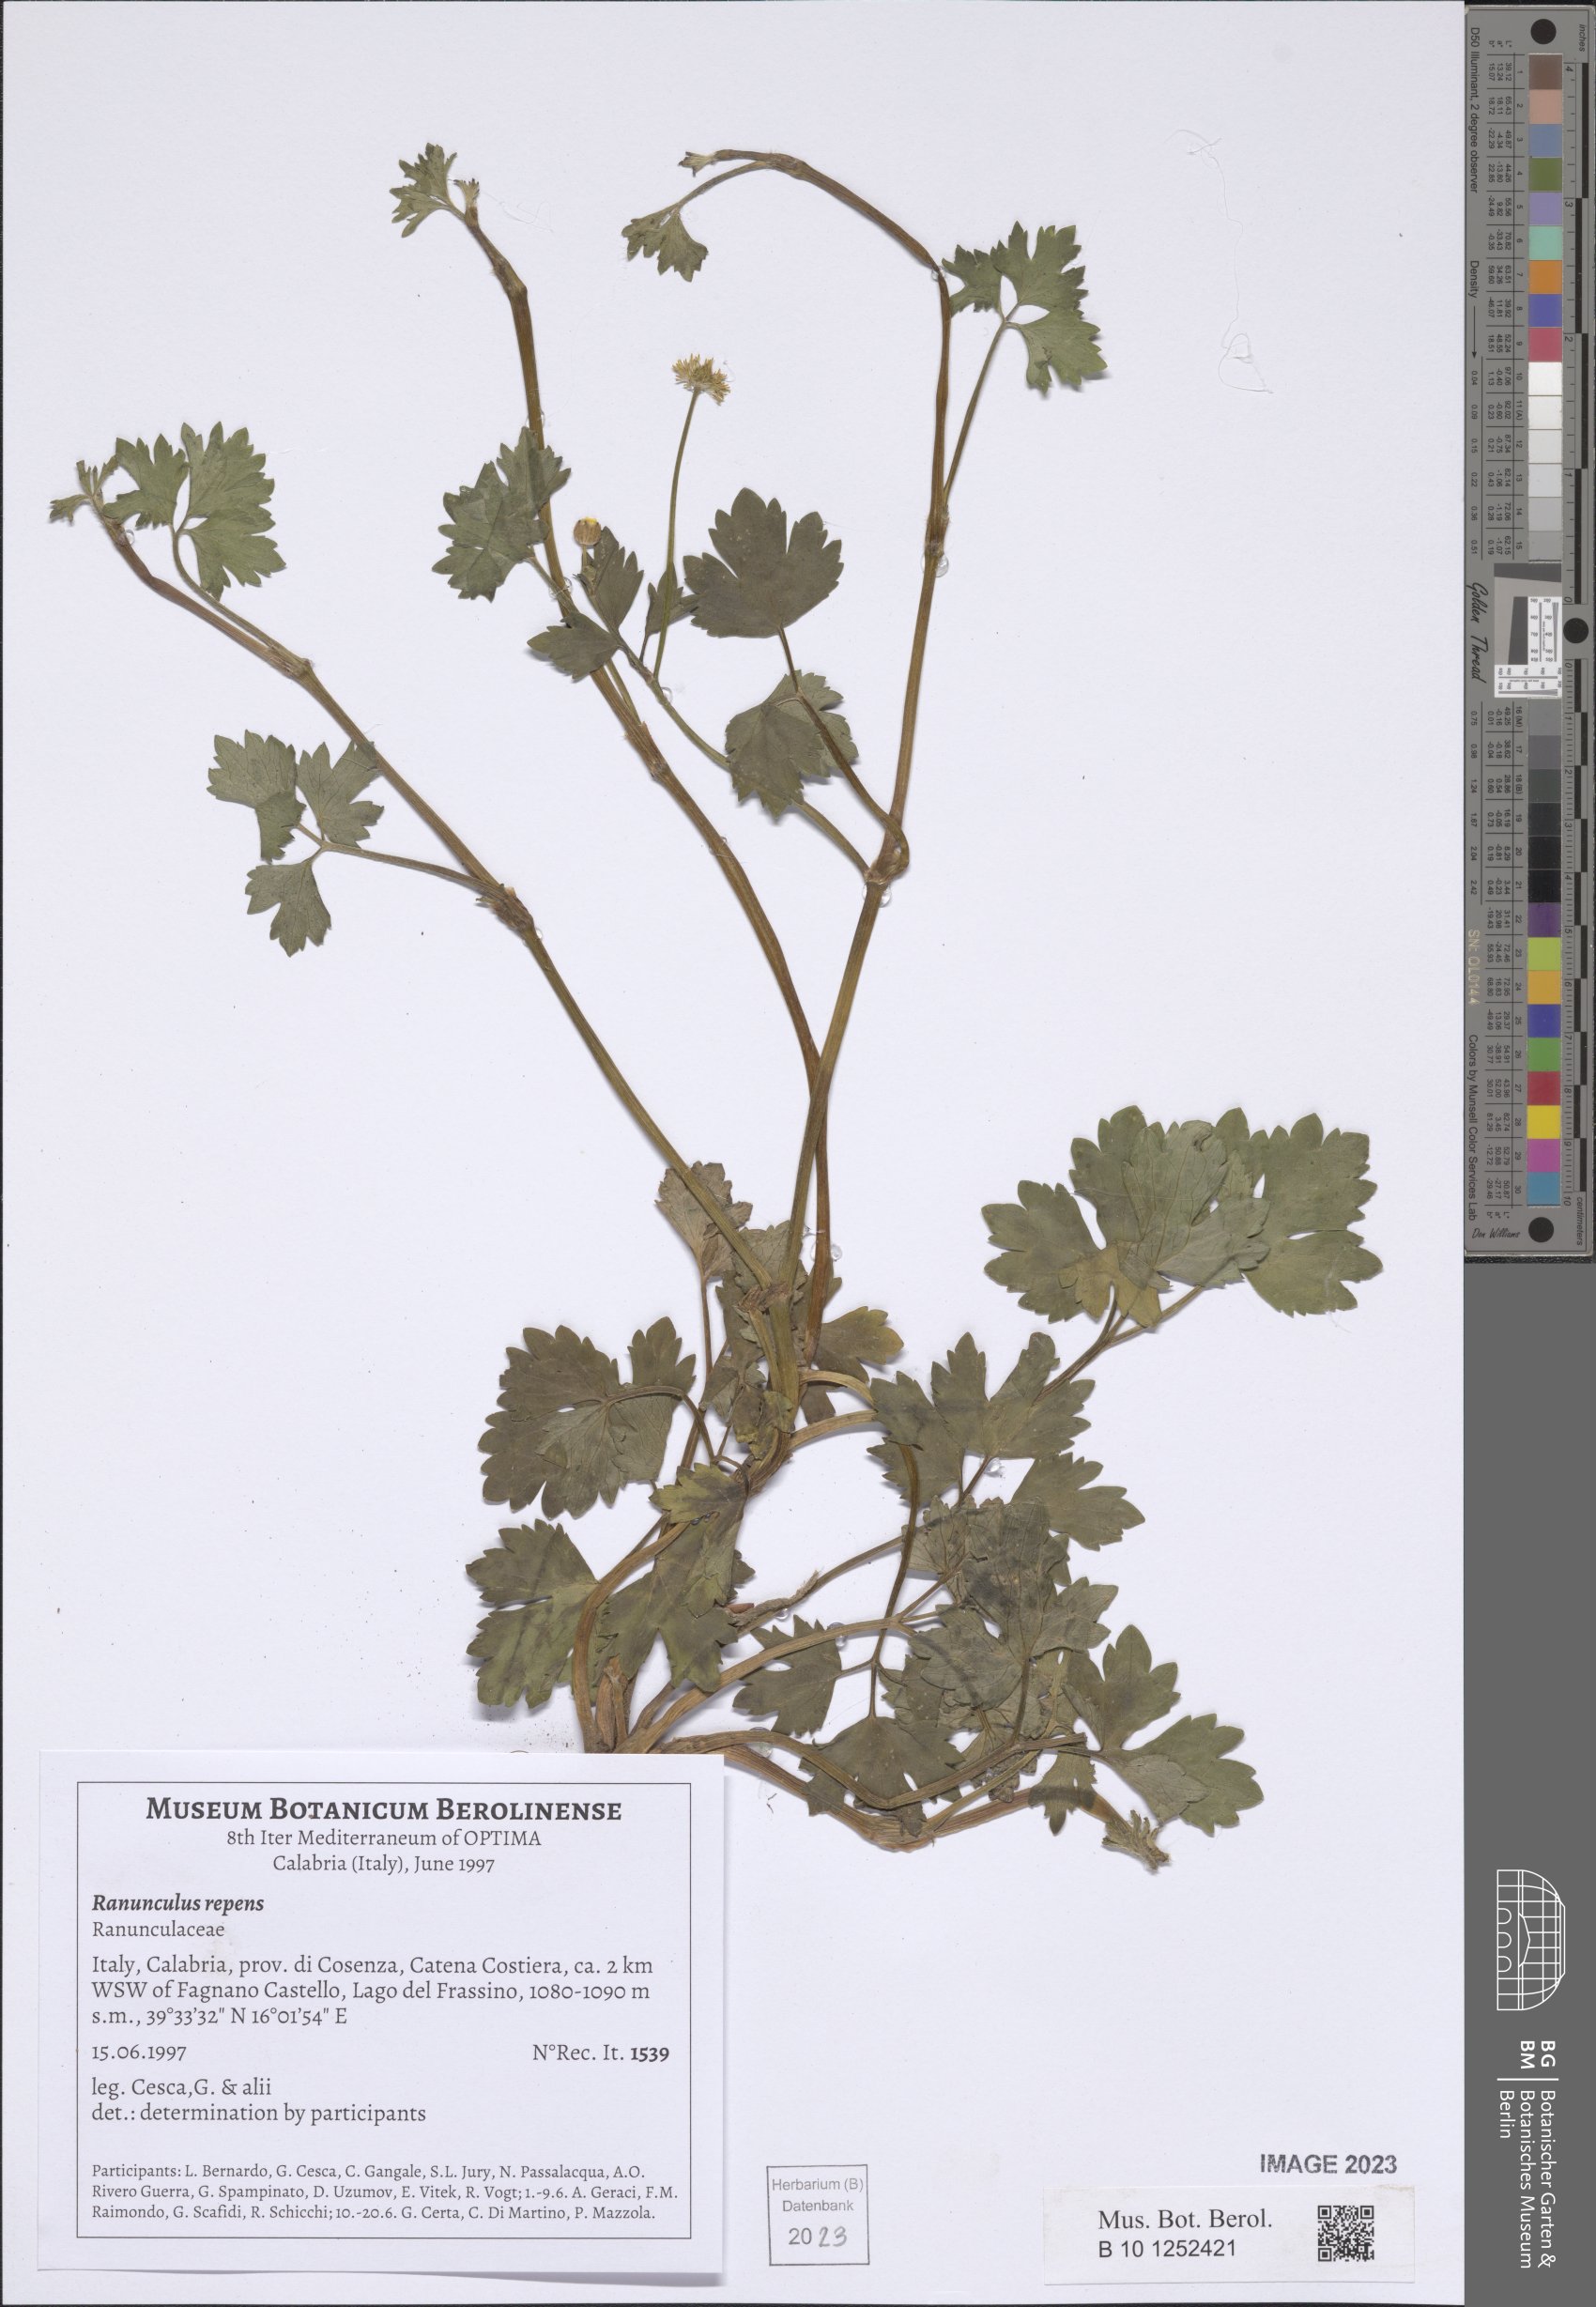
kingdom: Plantae
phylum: Tracheophyta
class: Magnoliopsida
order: Ranunculales
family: Ranunculaceae
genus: Ranunculus
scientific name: Ranunculus repens
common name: Creeping buttercup
